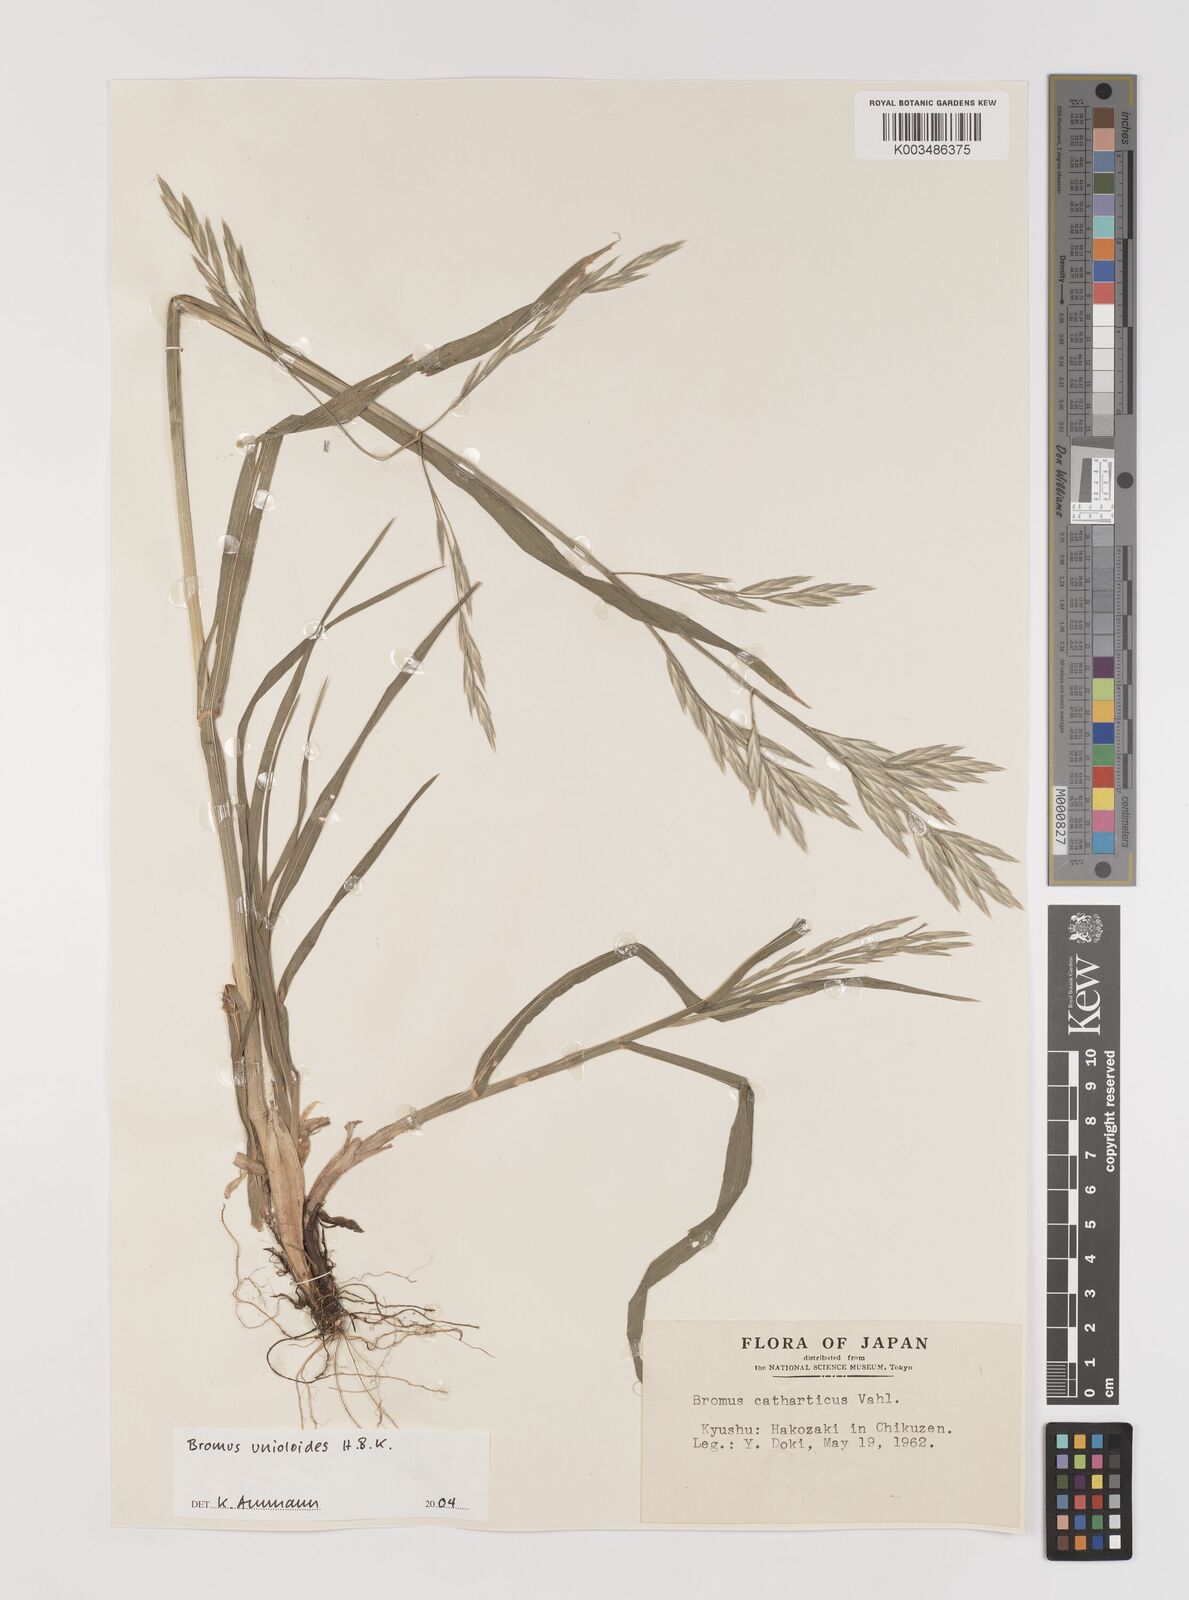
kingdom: Plantae
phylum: Tracheophyta
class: Liliopsida
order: Poales
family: Poaceae
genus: Bromus
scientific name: Bromus catharticus
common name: Rescuegrass
